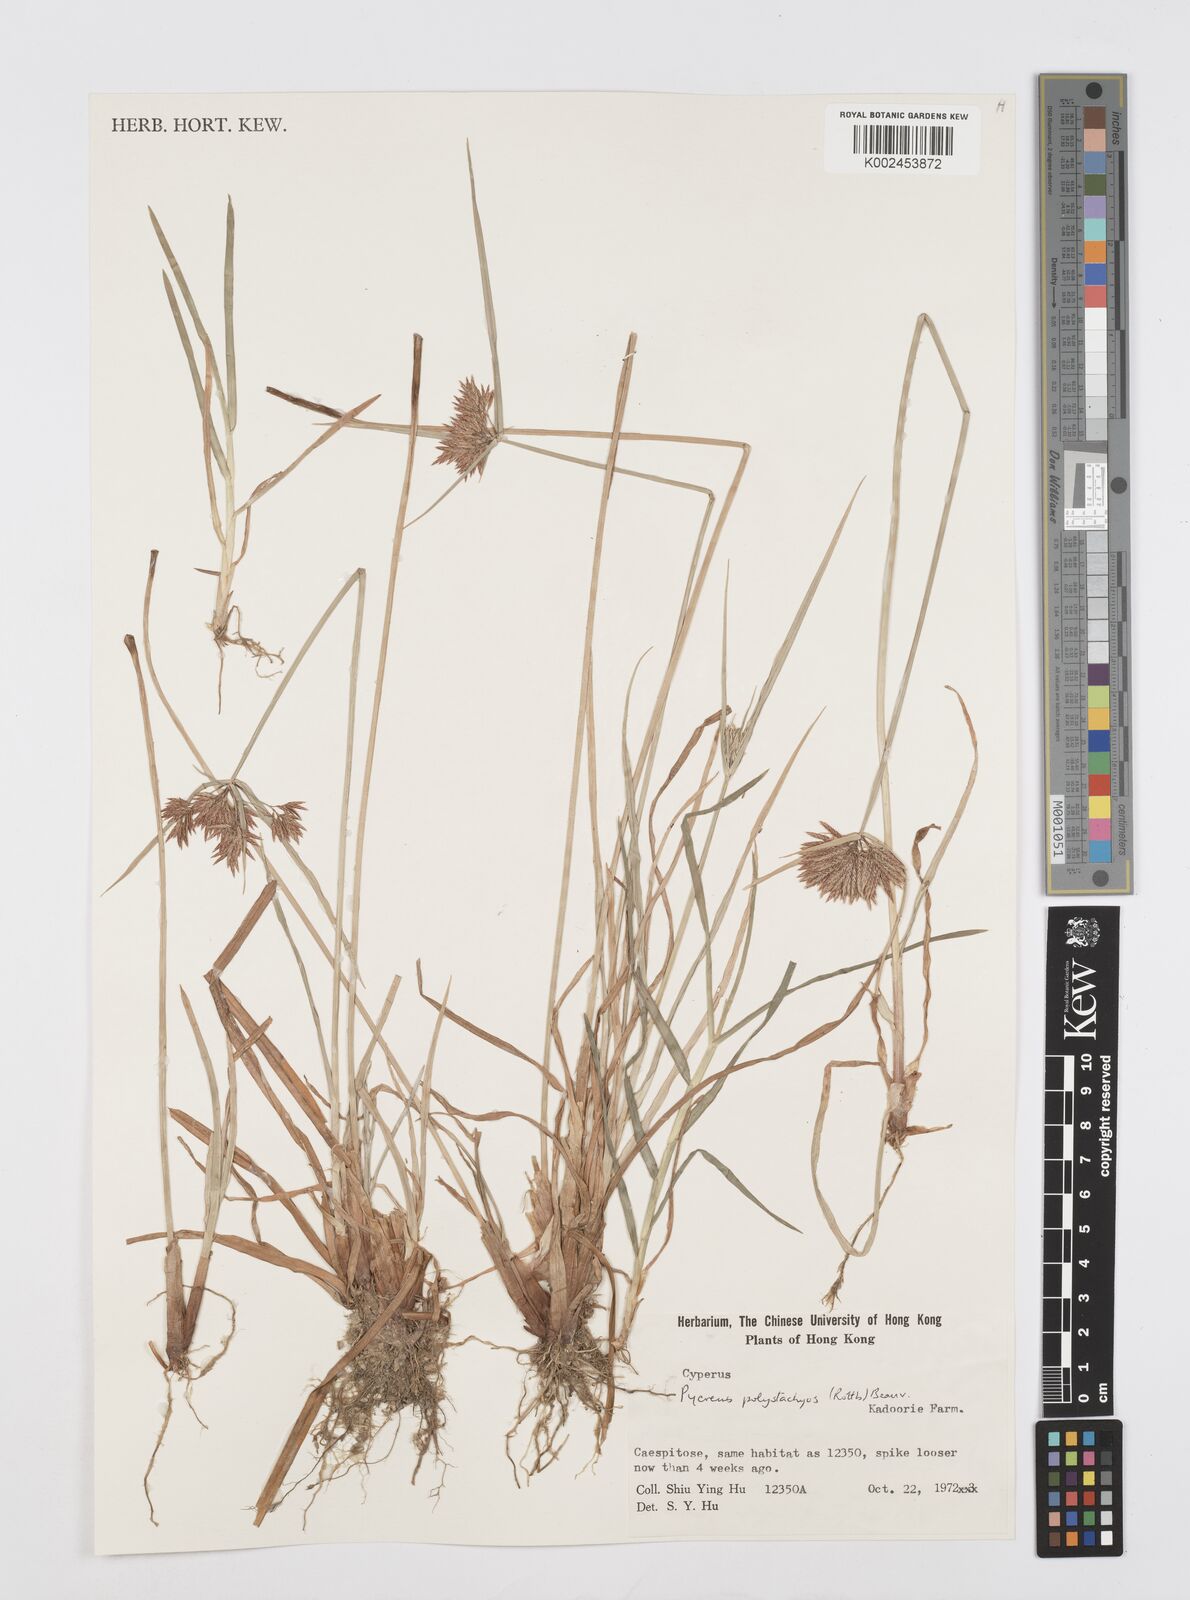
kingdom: Plantae
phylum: Tracheophyta
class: Liliopsida
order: Poales
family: Cyperaceae
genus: Cyperus
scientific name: Cyperus polystachyos
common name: Bunchy flat sedge
